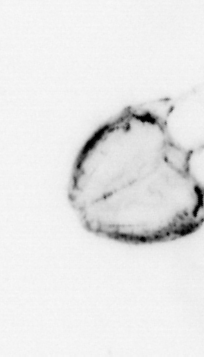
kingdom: Animalia
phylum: Chaetognatha
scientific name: Chaetognatha
